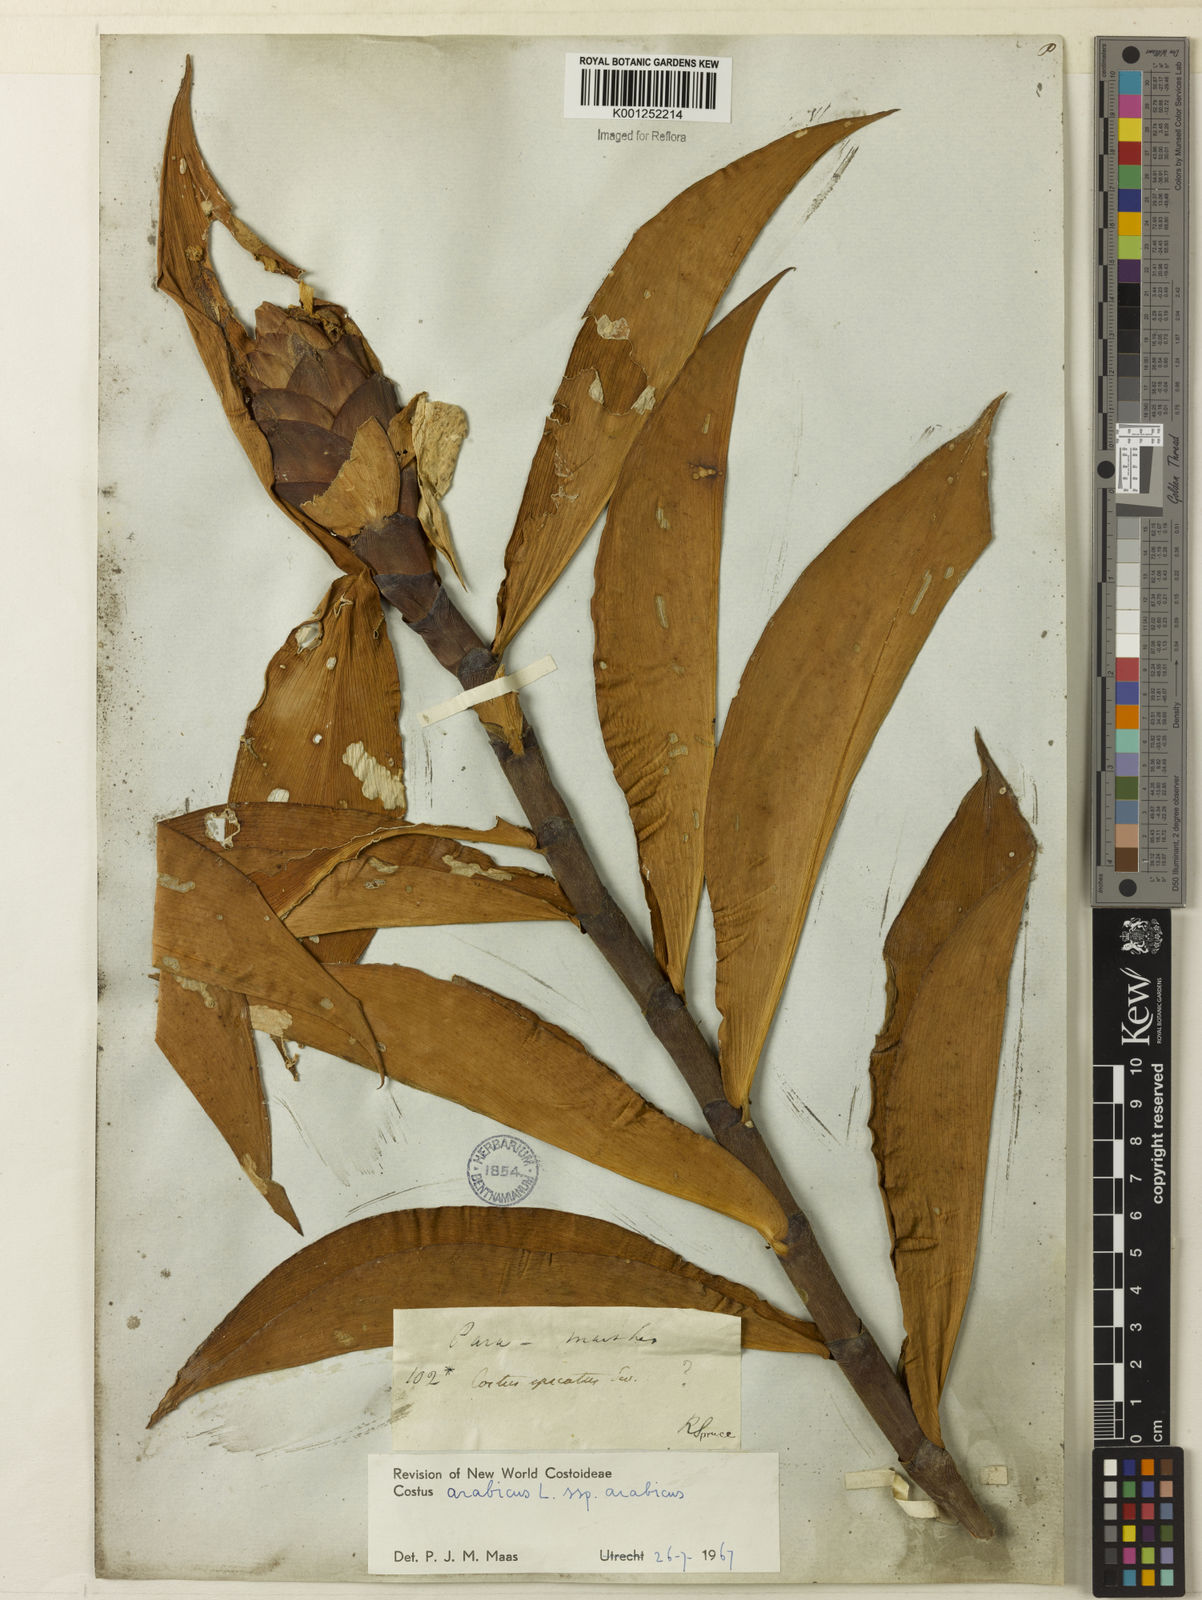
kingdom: Plantae
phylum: Tracheophyta
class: Liliopsida
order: Zingiberales
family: Costaceae
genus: Costus
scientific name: Costus arabicus
